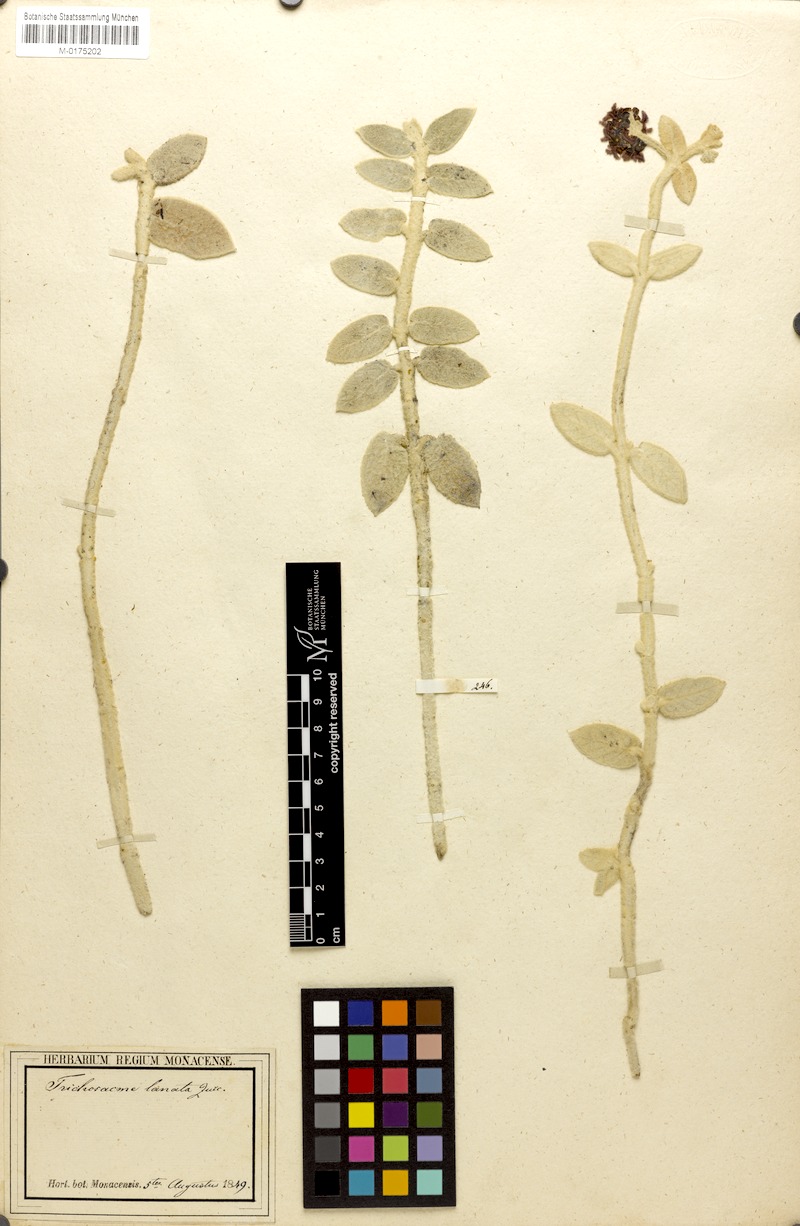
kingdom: Plantae
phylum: Tracheophyta
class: Magnoliopsida
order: Gentianales
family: Apocynaceae
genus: Trichosacme
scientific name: Trichosacme lanata
